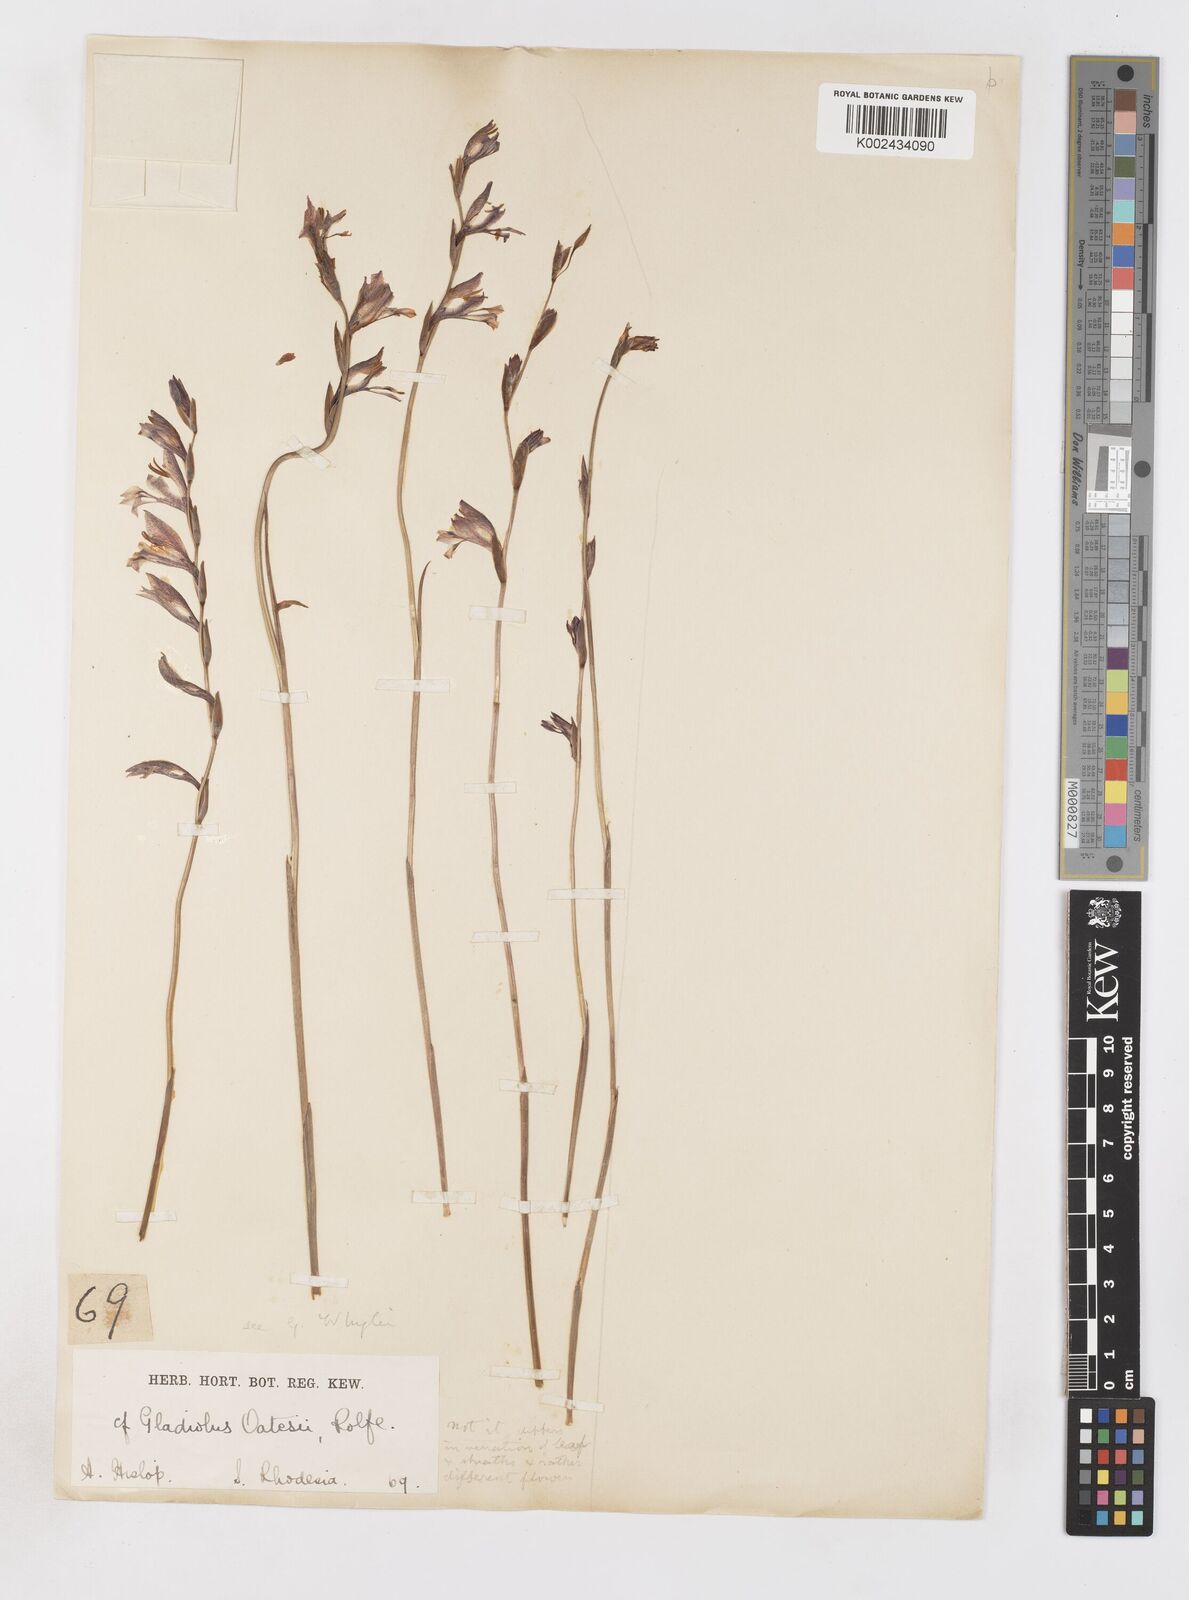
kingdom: Plantae
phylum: Tracheophyta
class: Liliopsida
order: Asparagales
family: Iridaceae
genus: Gladiolus
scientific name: Gladiolus atropurpureus
